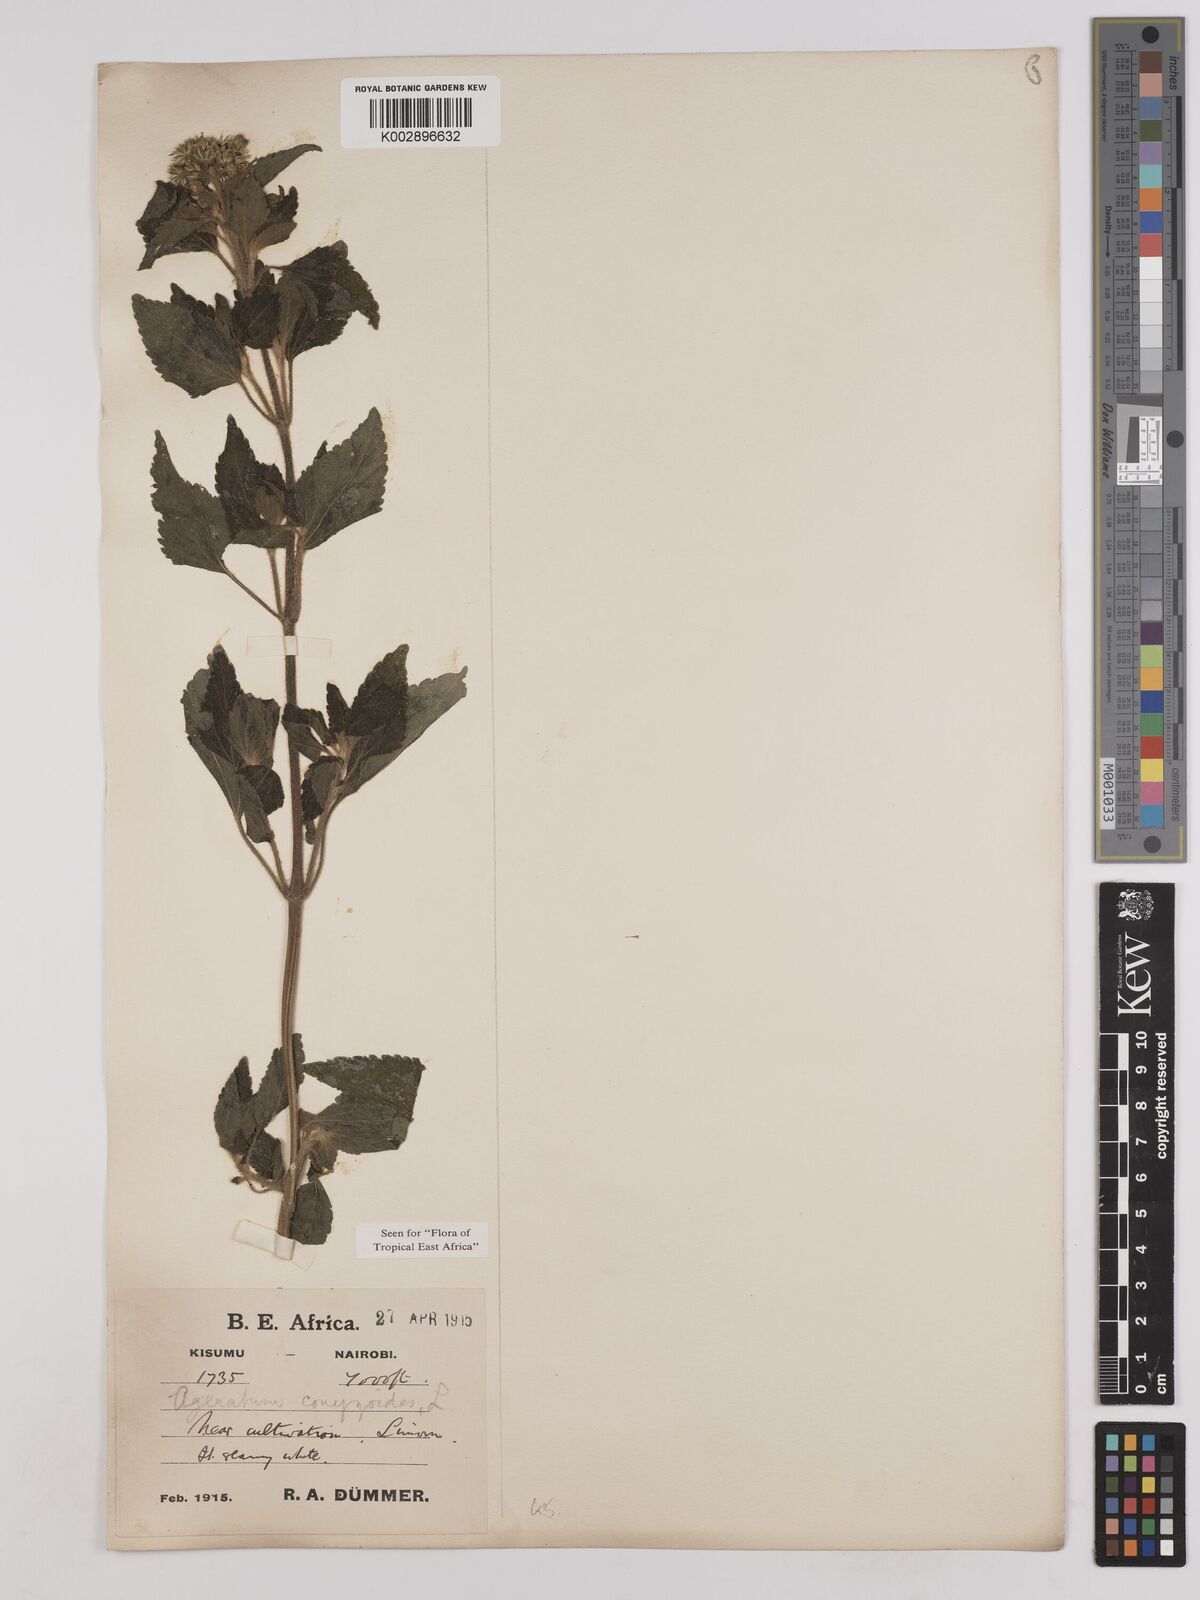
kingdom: Plantae
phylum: Tracheophyta
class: Magnoliopsida
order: Asterales
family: Asteraceae
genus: Ageratum
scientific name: Ageratum conyzoides
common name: Tropical whiteweed
